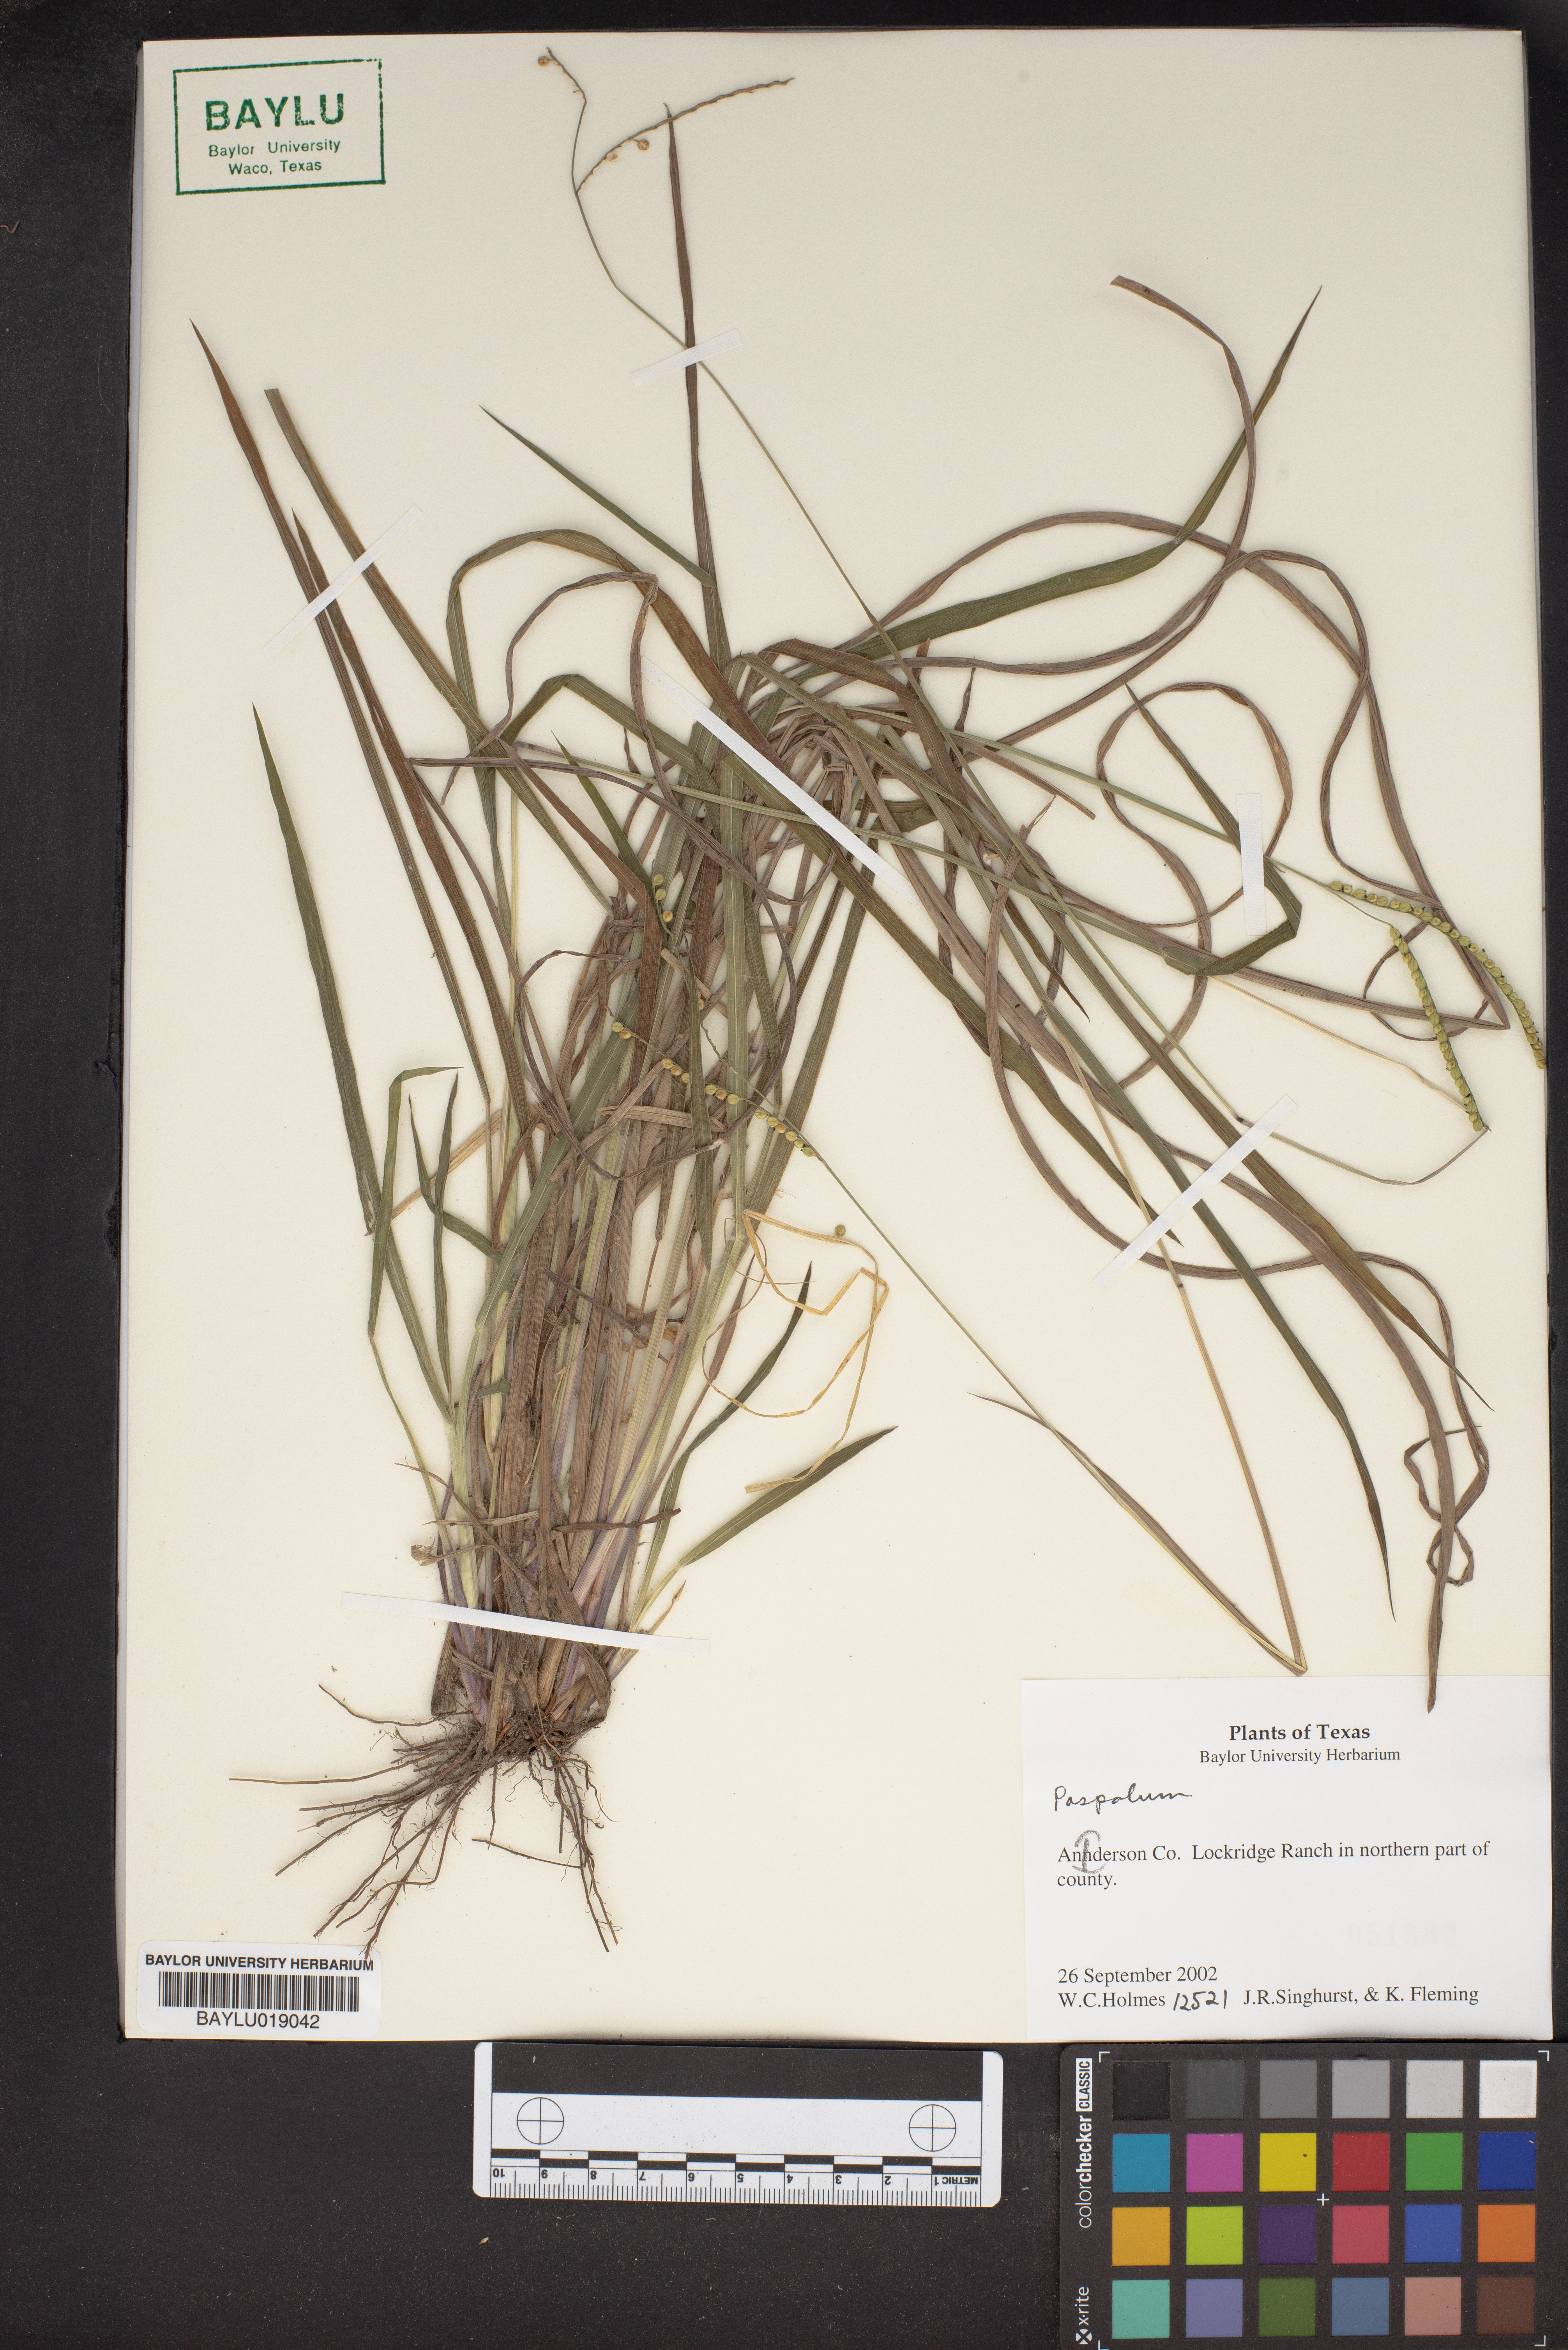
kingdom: Plantae
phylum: Tracheophyta
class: Liliopsida
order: Poales
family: Poaceae
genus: Paspalum
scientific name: Paspalum
